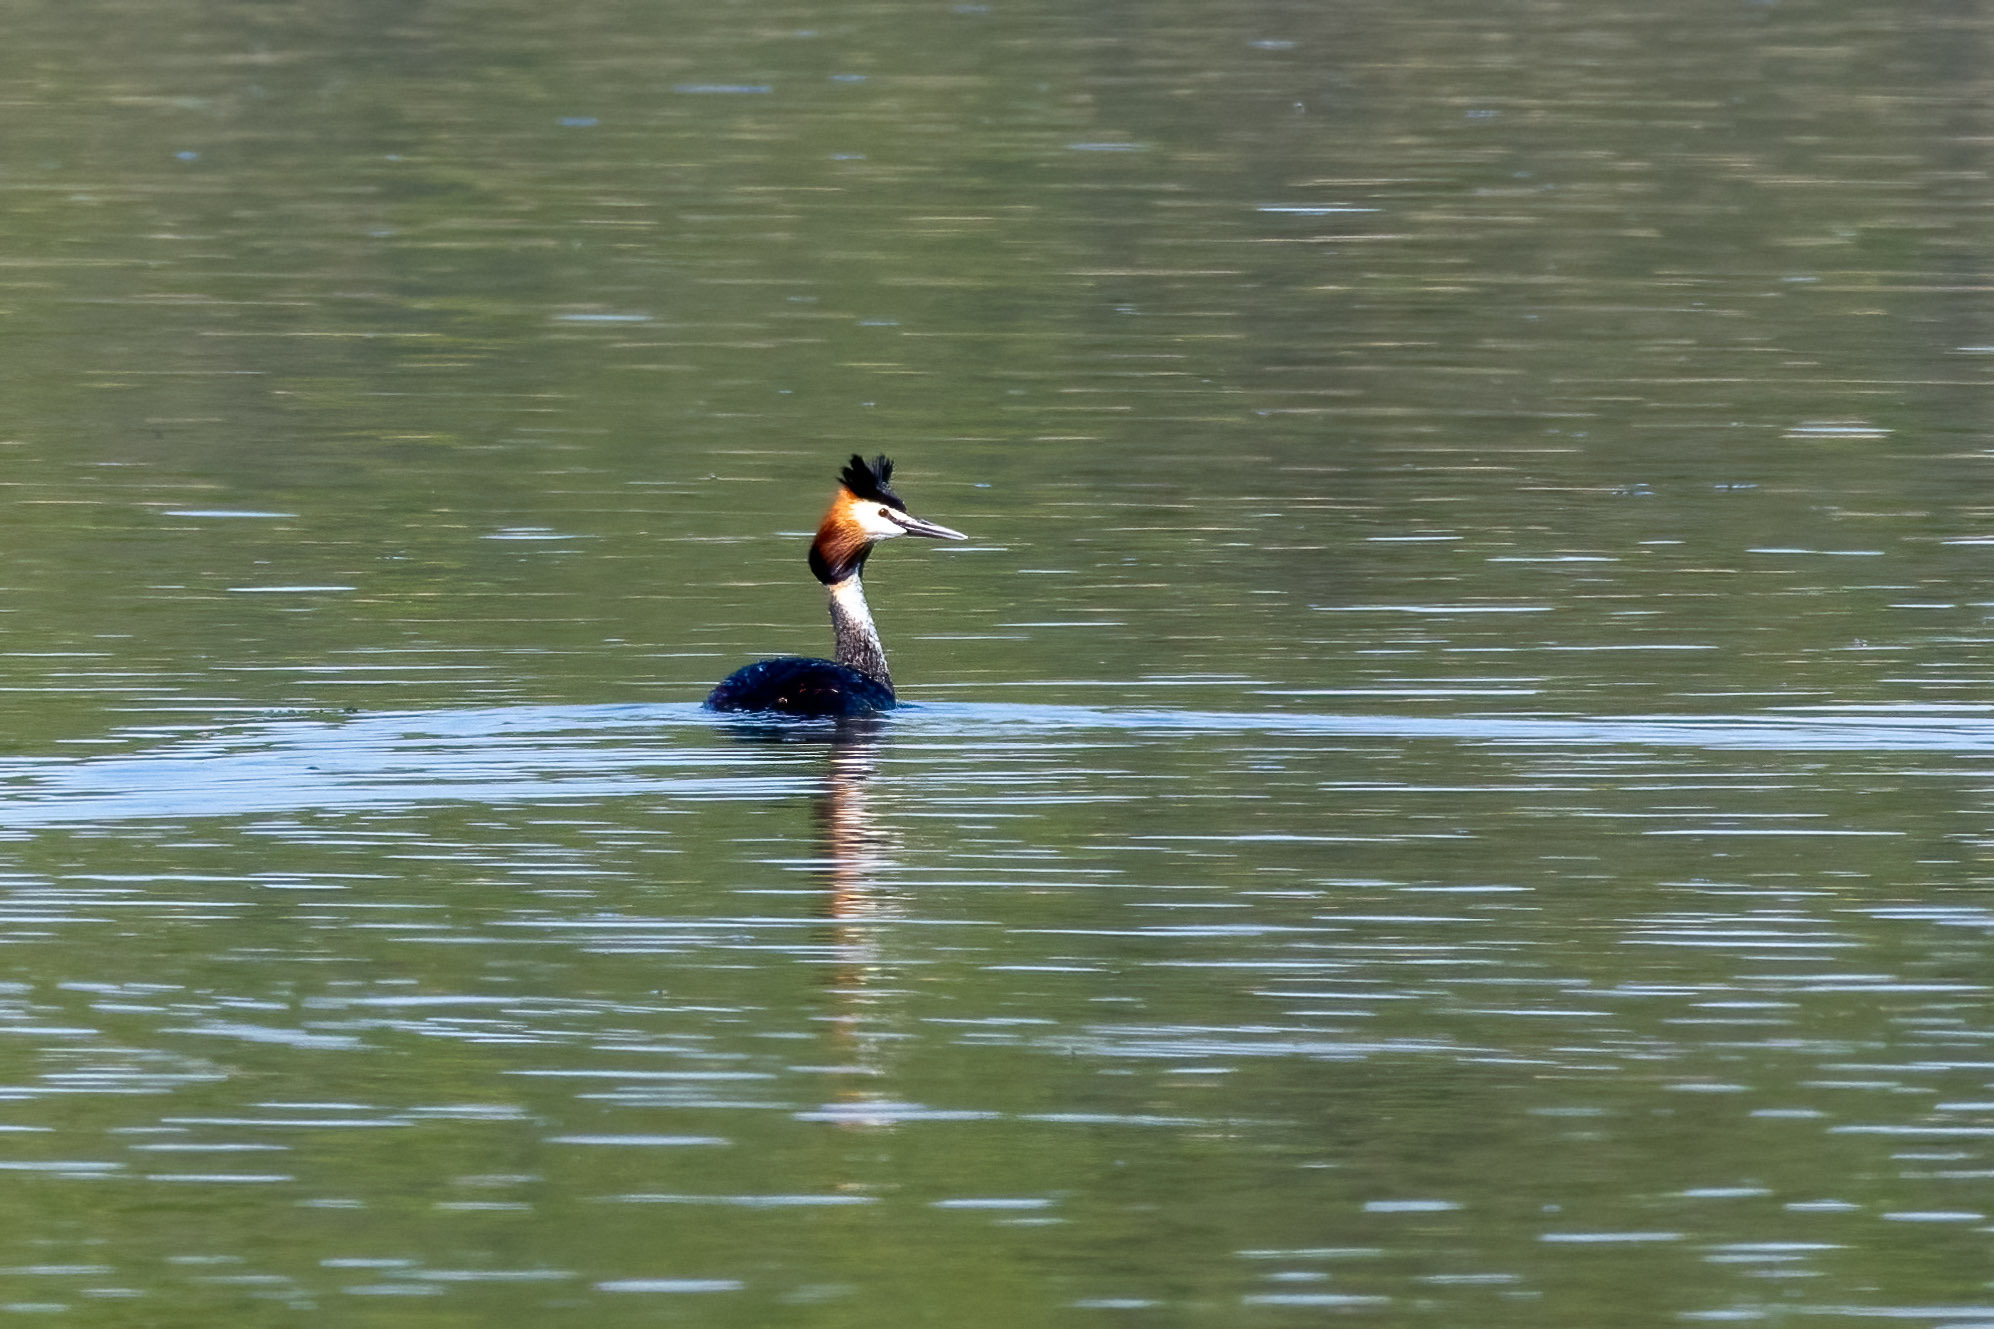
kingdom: Animalia
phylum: Chordata
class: Aves
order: Podicipediformes
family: Podicipedidae
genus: Podiceps
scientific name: Podiceps cristatus
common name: Toppet lappedykker
